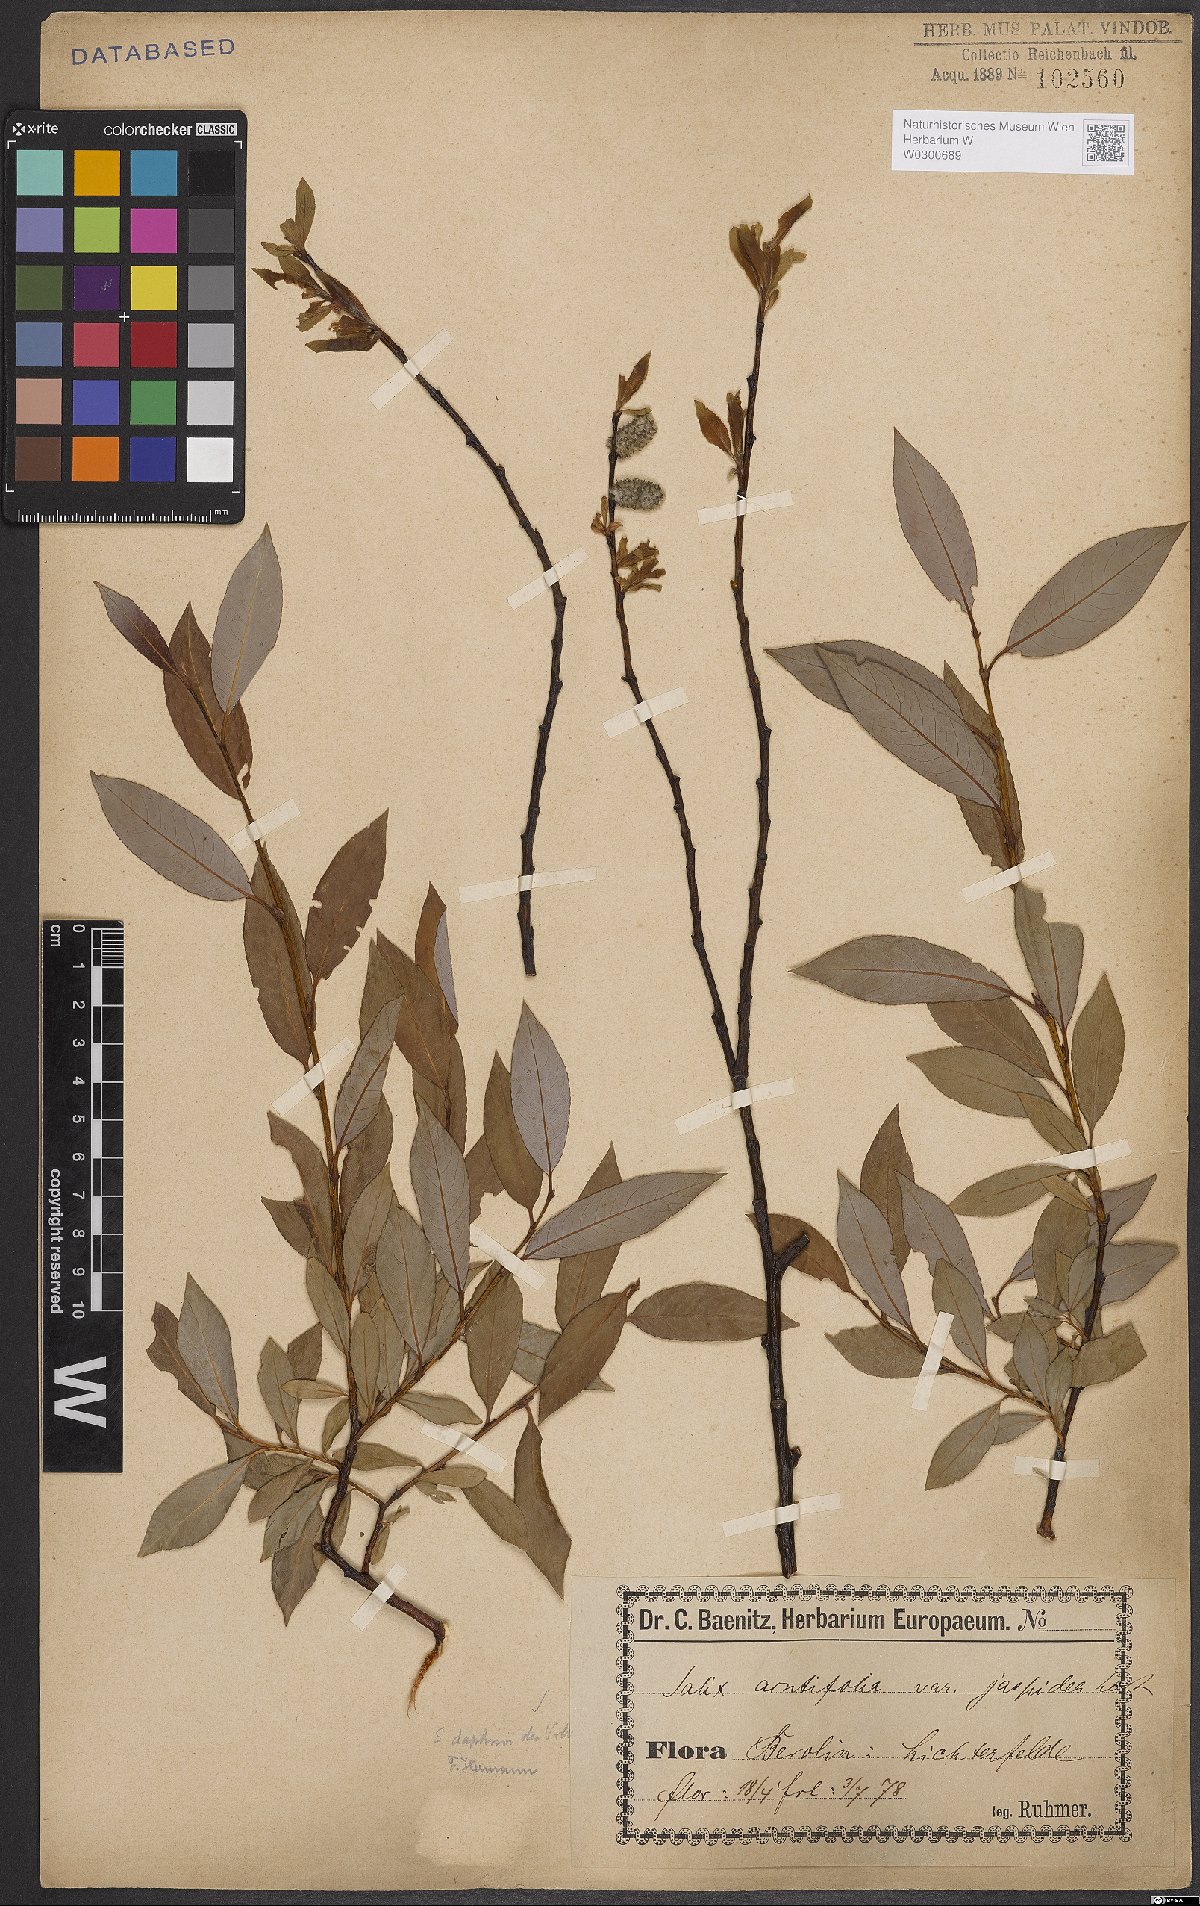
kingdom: Plantae
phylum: Tracheophyta
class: Magnoliopsida
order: Malpighiales
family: Salicaceae
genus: Salix
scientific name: Salix daphnoides
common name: European violet-willow
